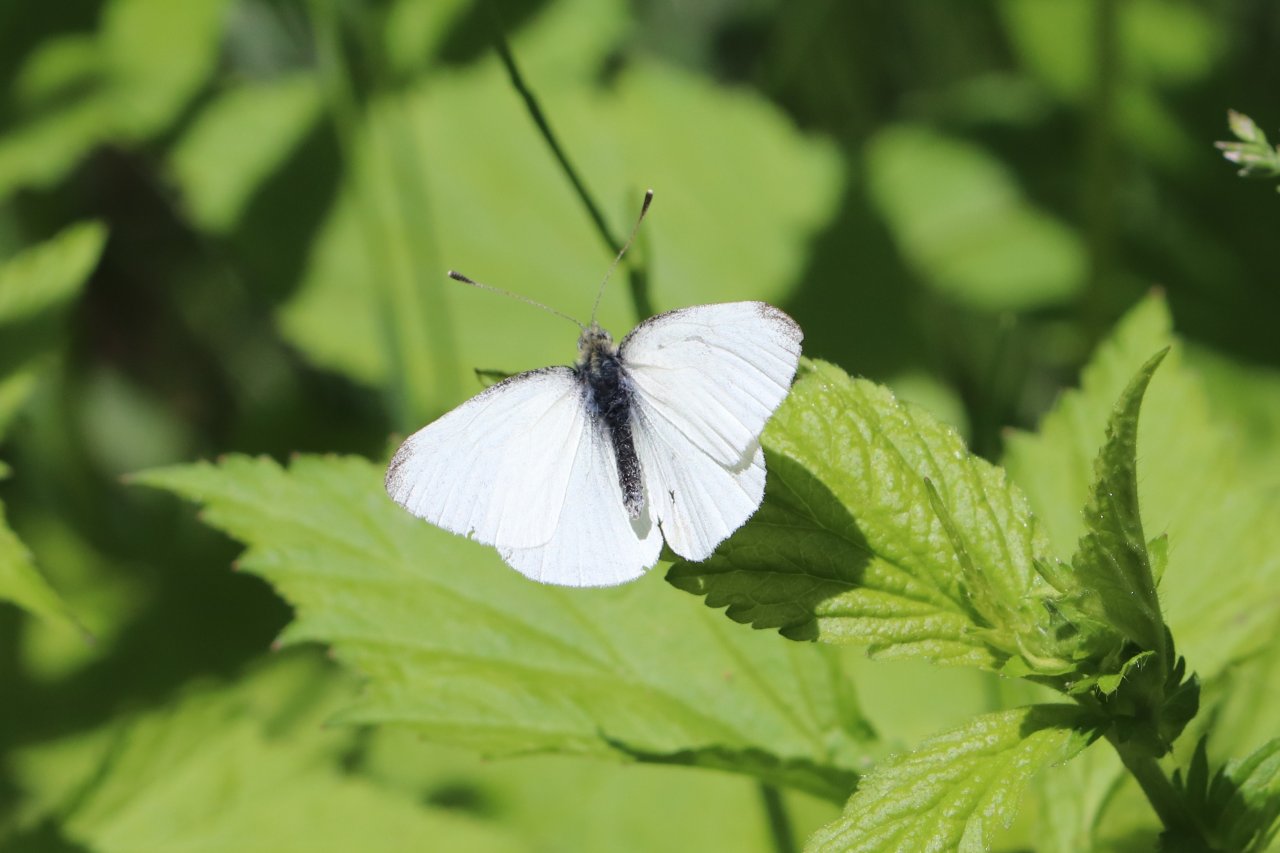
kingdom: Animalia
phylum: Arthropoda
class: Insecta
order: Lepidoptera
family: Pieridae
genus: Pieris
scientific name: Pieris rapae
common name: Cabbage White
